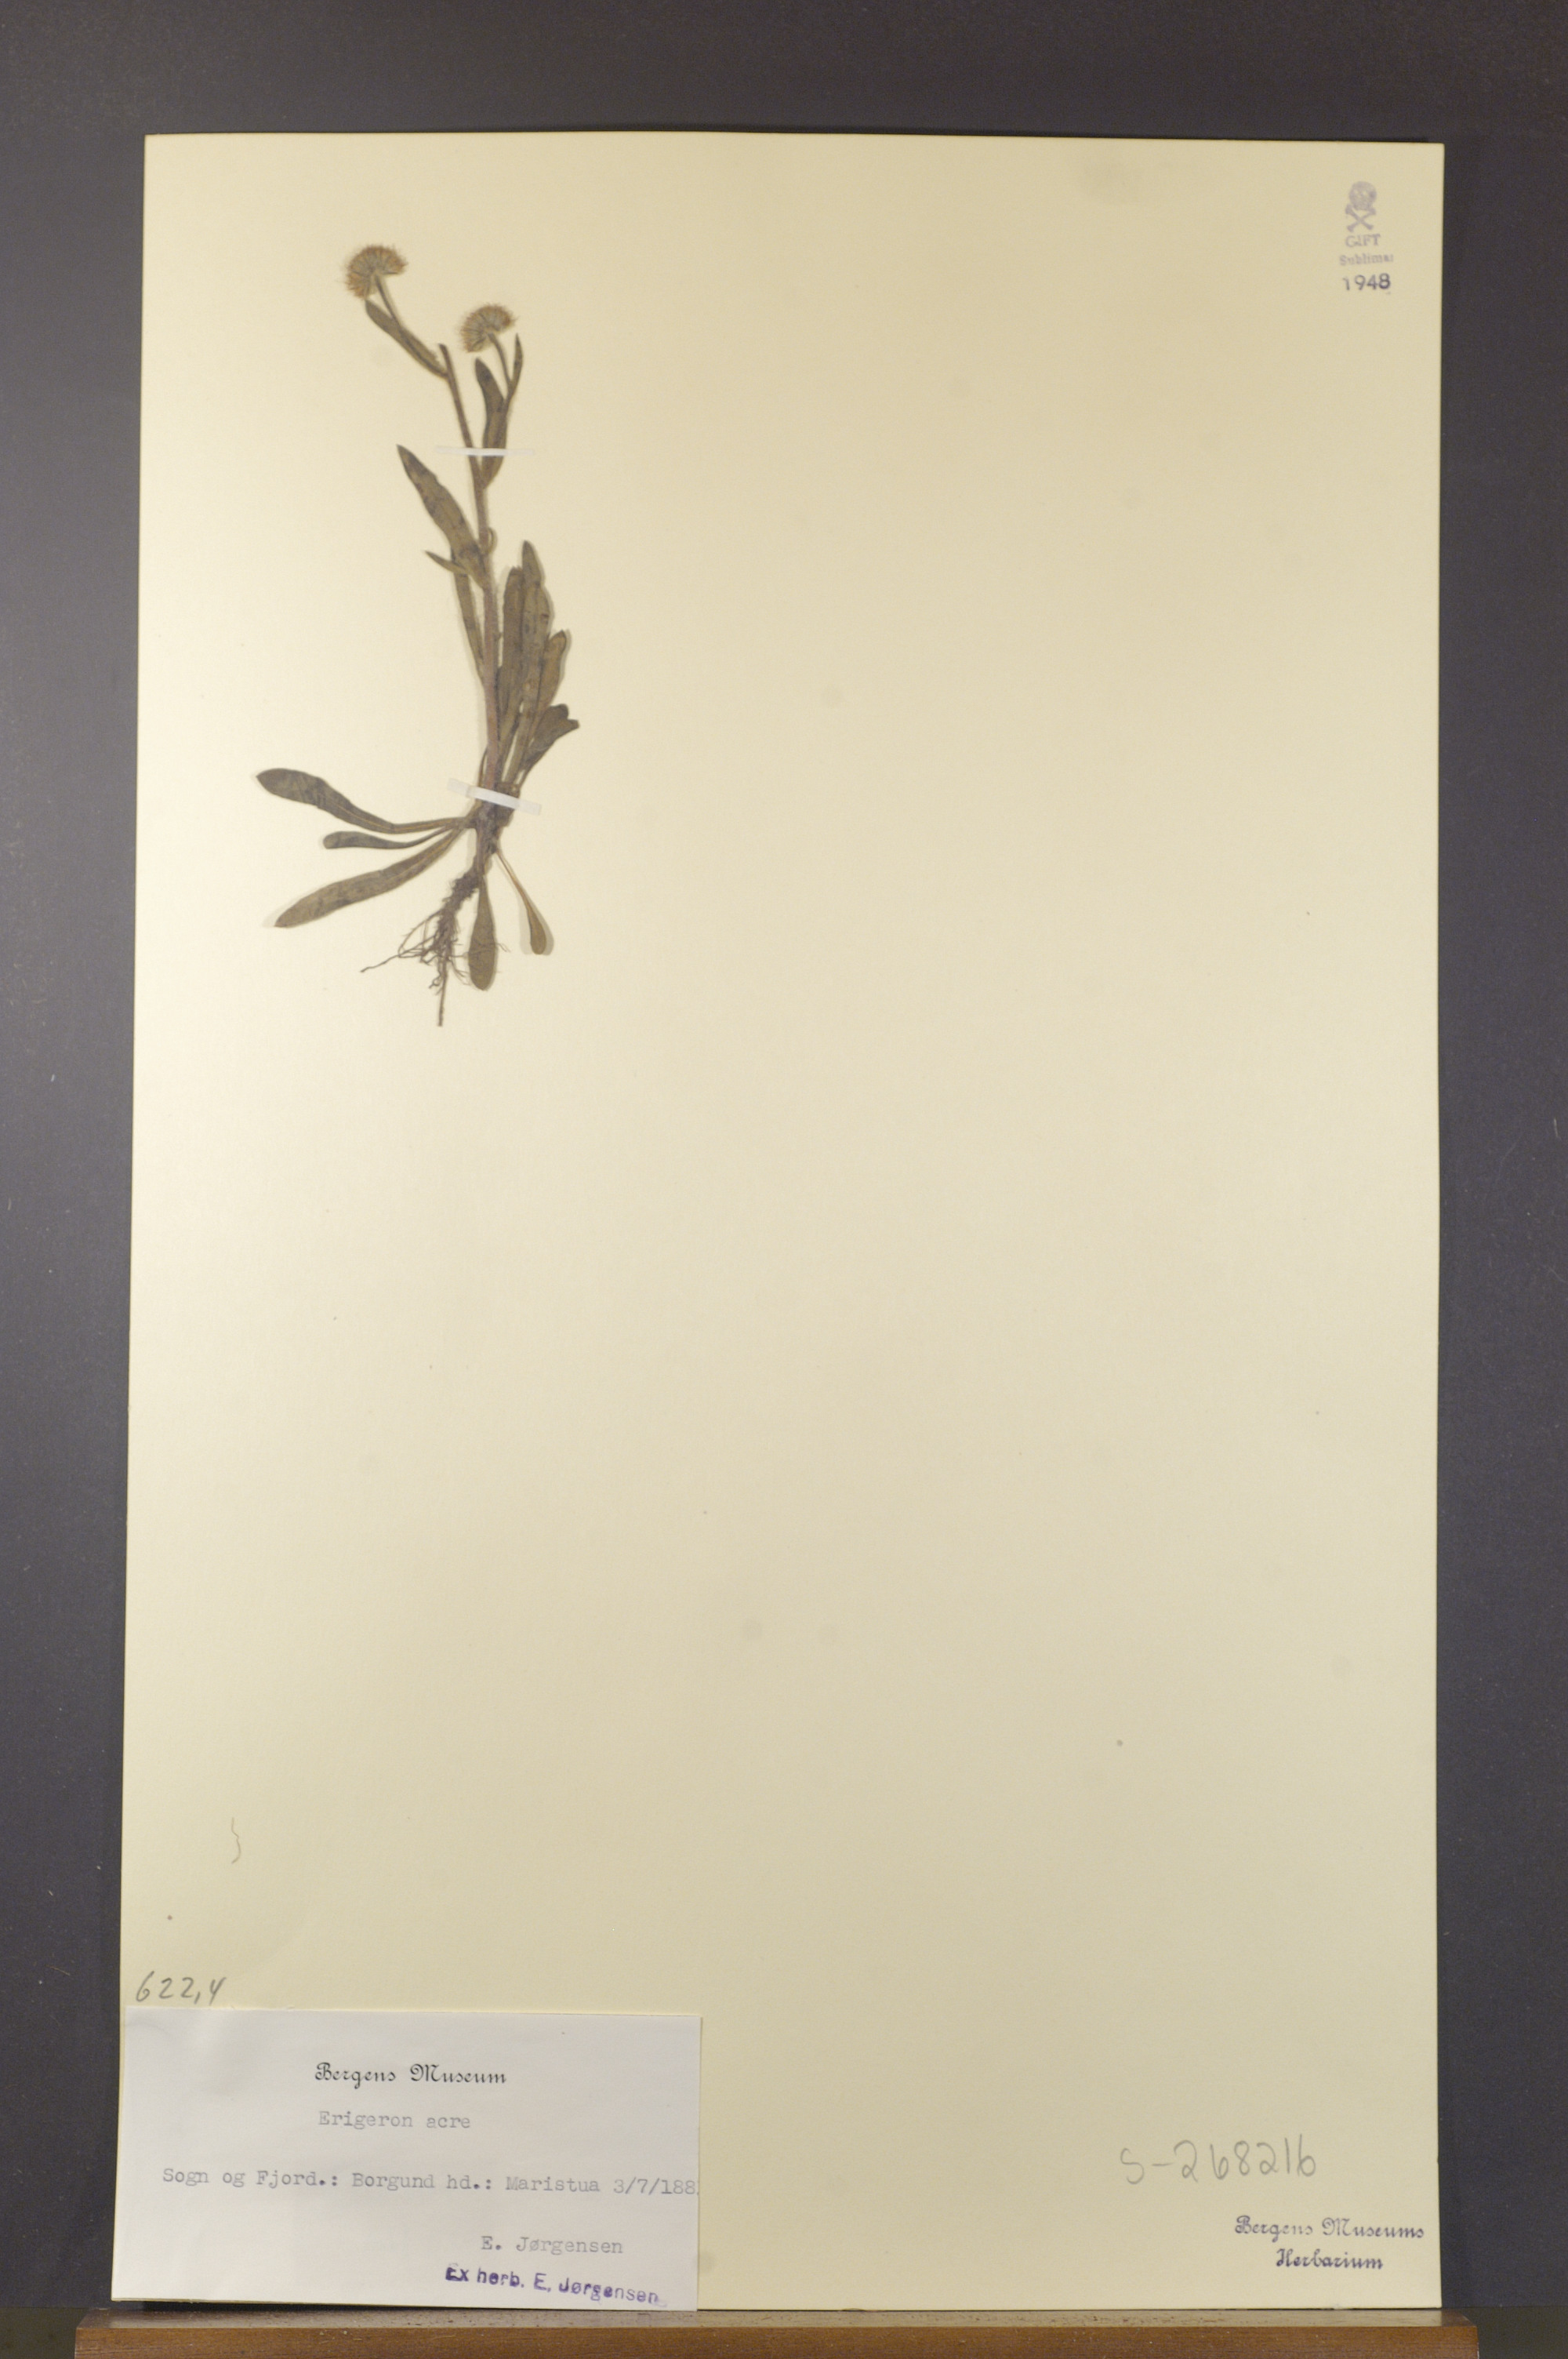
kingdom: Plantae
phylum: Tracheophyta
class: Magnoliopsida
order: Asterales
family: Asteraceae
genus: Erigeron
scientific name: Erigeron acris
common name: Blue fleabane
